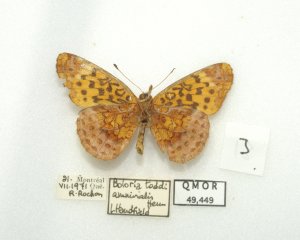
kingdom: Animalia
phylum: Arthropoda
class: Insecta
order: Lepidoptera
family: Nymphalidae
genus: Clossiana
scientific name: Clossiana toddi
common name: Meadow Fritillary
